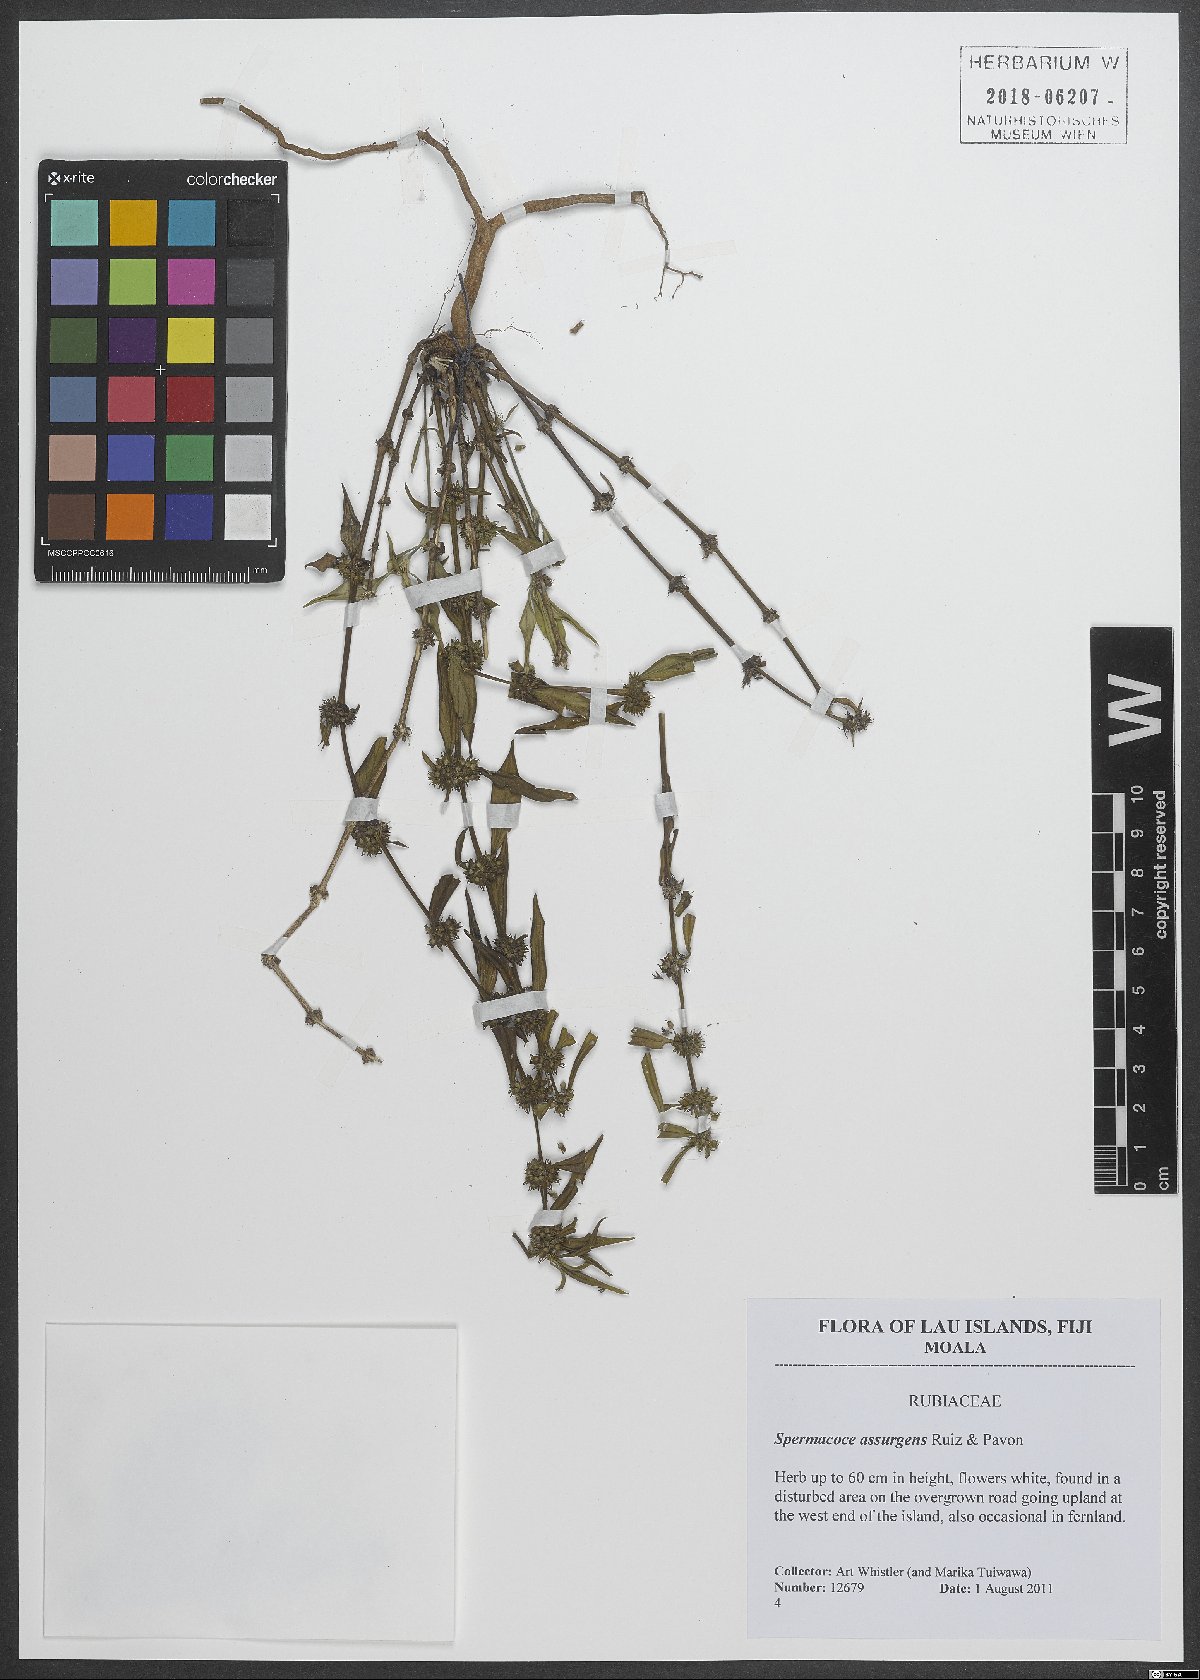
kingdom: Plantae
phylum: Tracheophyta
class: Magnoliopsida
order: Gentianales
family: Rubiaceae
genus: Spermacoce
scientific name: Spermacoce remota
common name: Woodland false buttonweed
